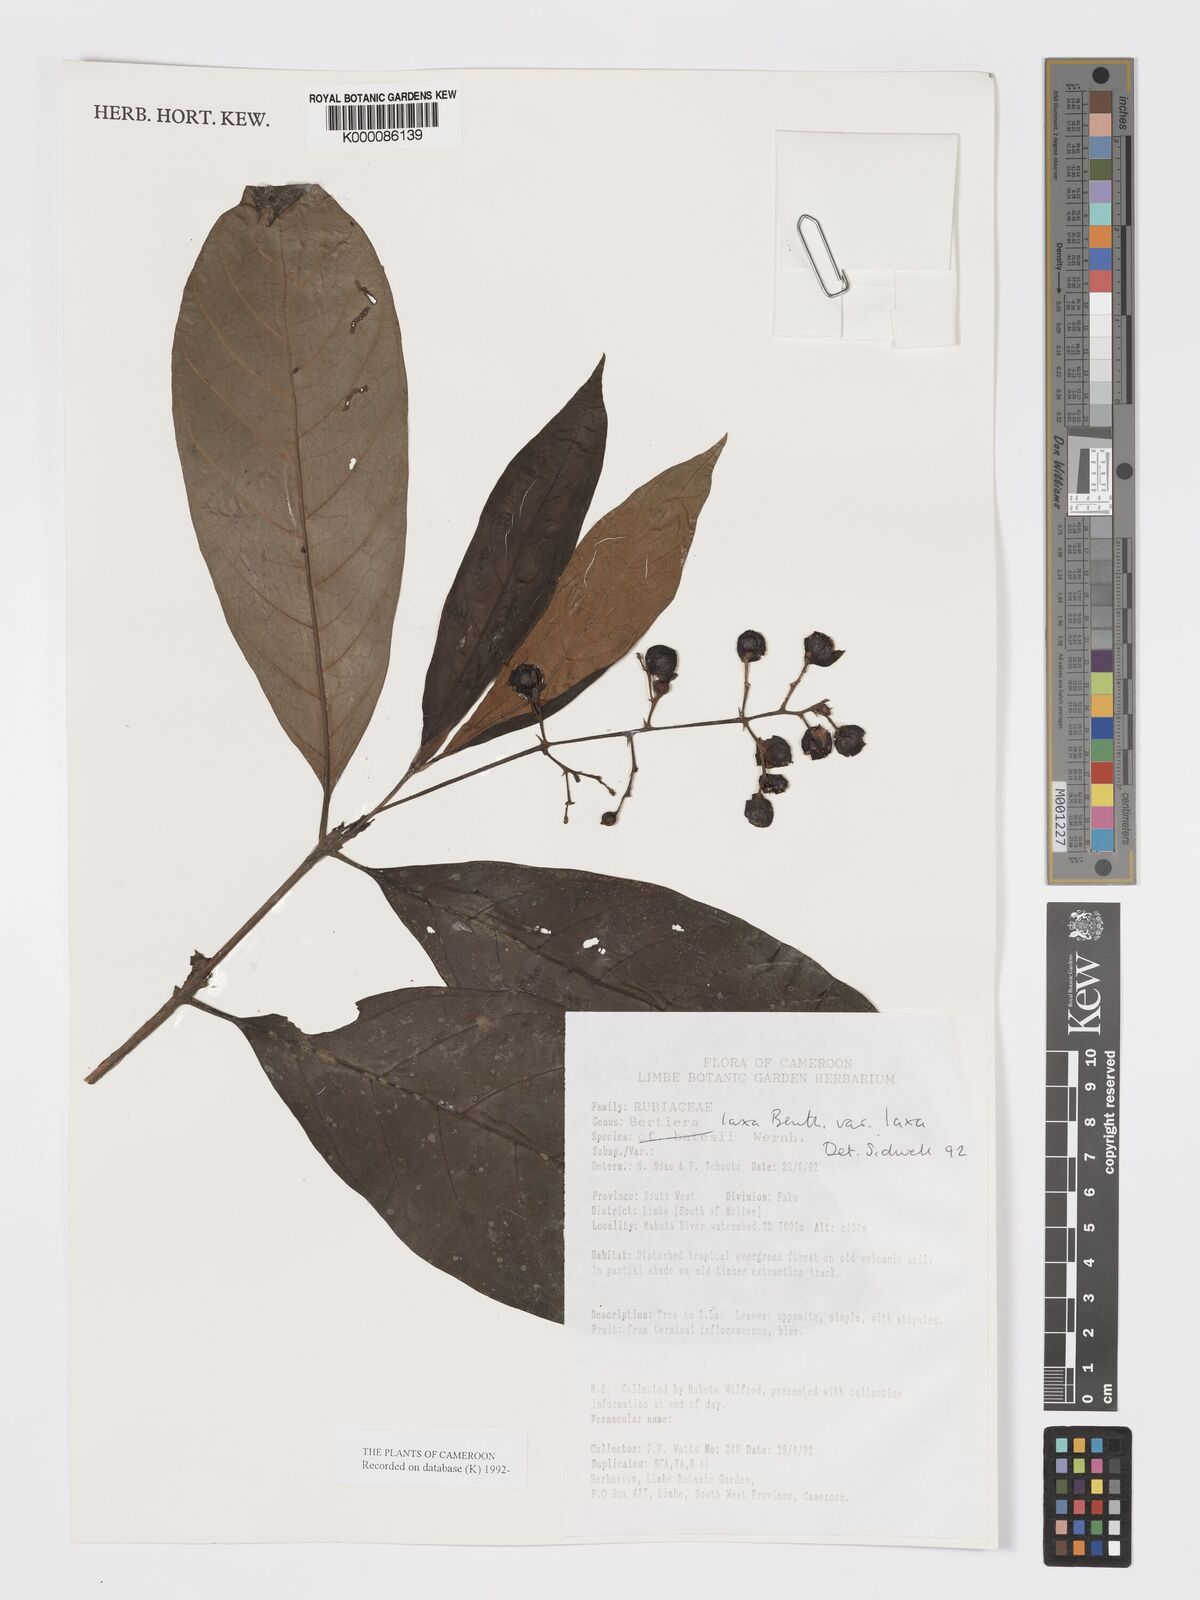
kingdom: Plantae
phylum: Tracheophyta
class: Magnoliopsida
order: Gentianales
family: Rubiaceae
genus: Bertiera
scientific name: Bertiera laxa
